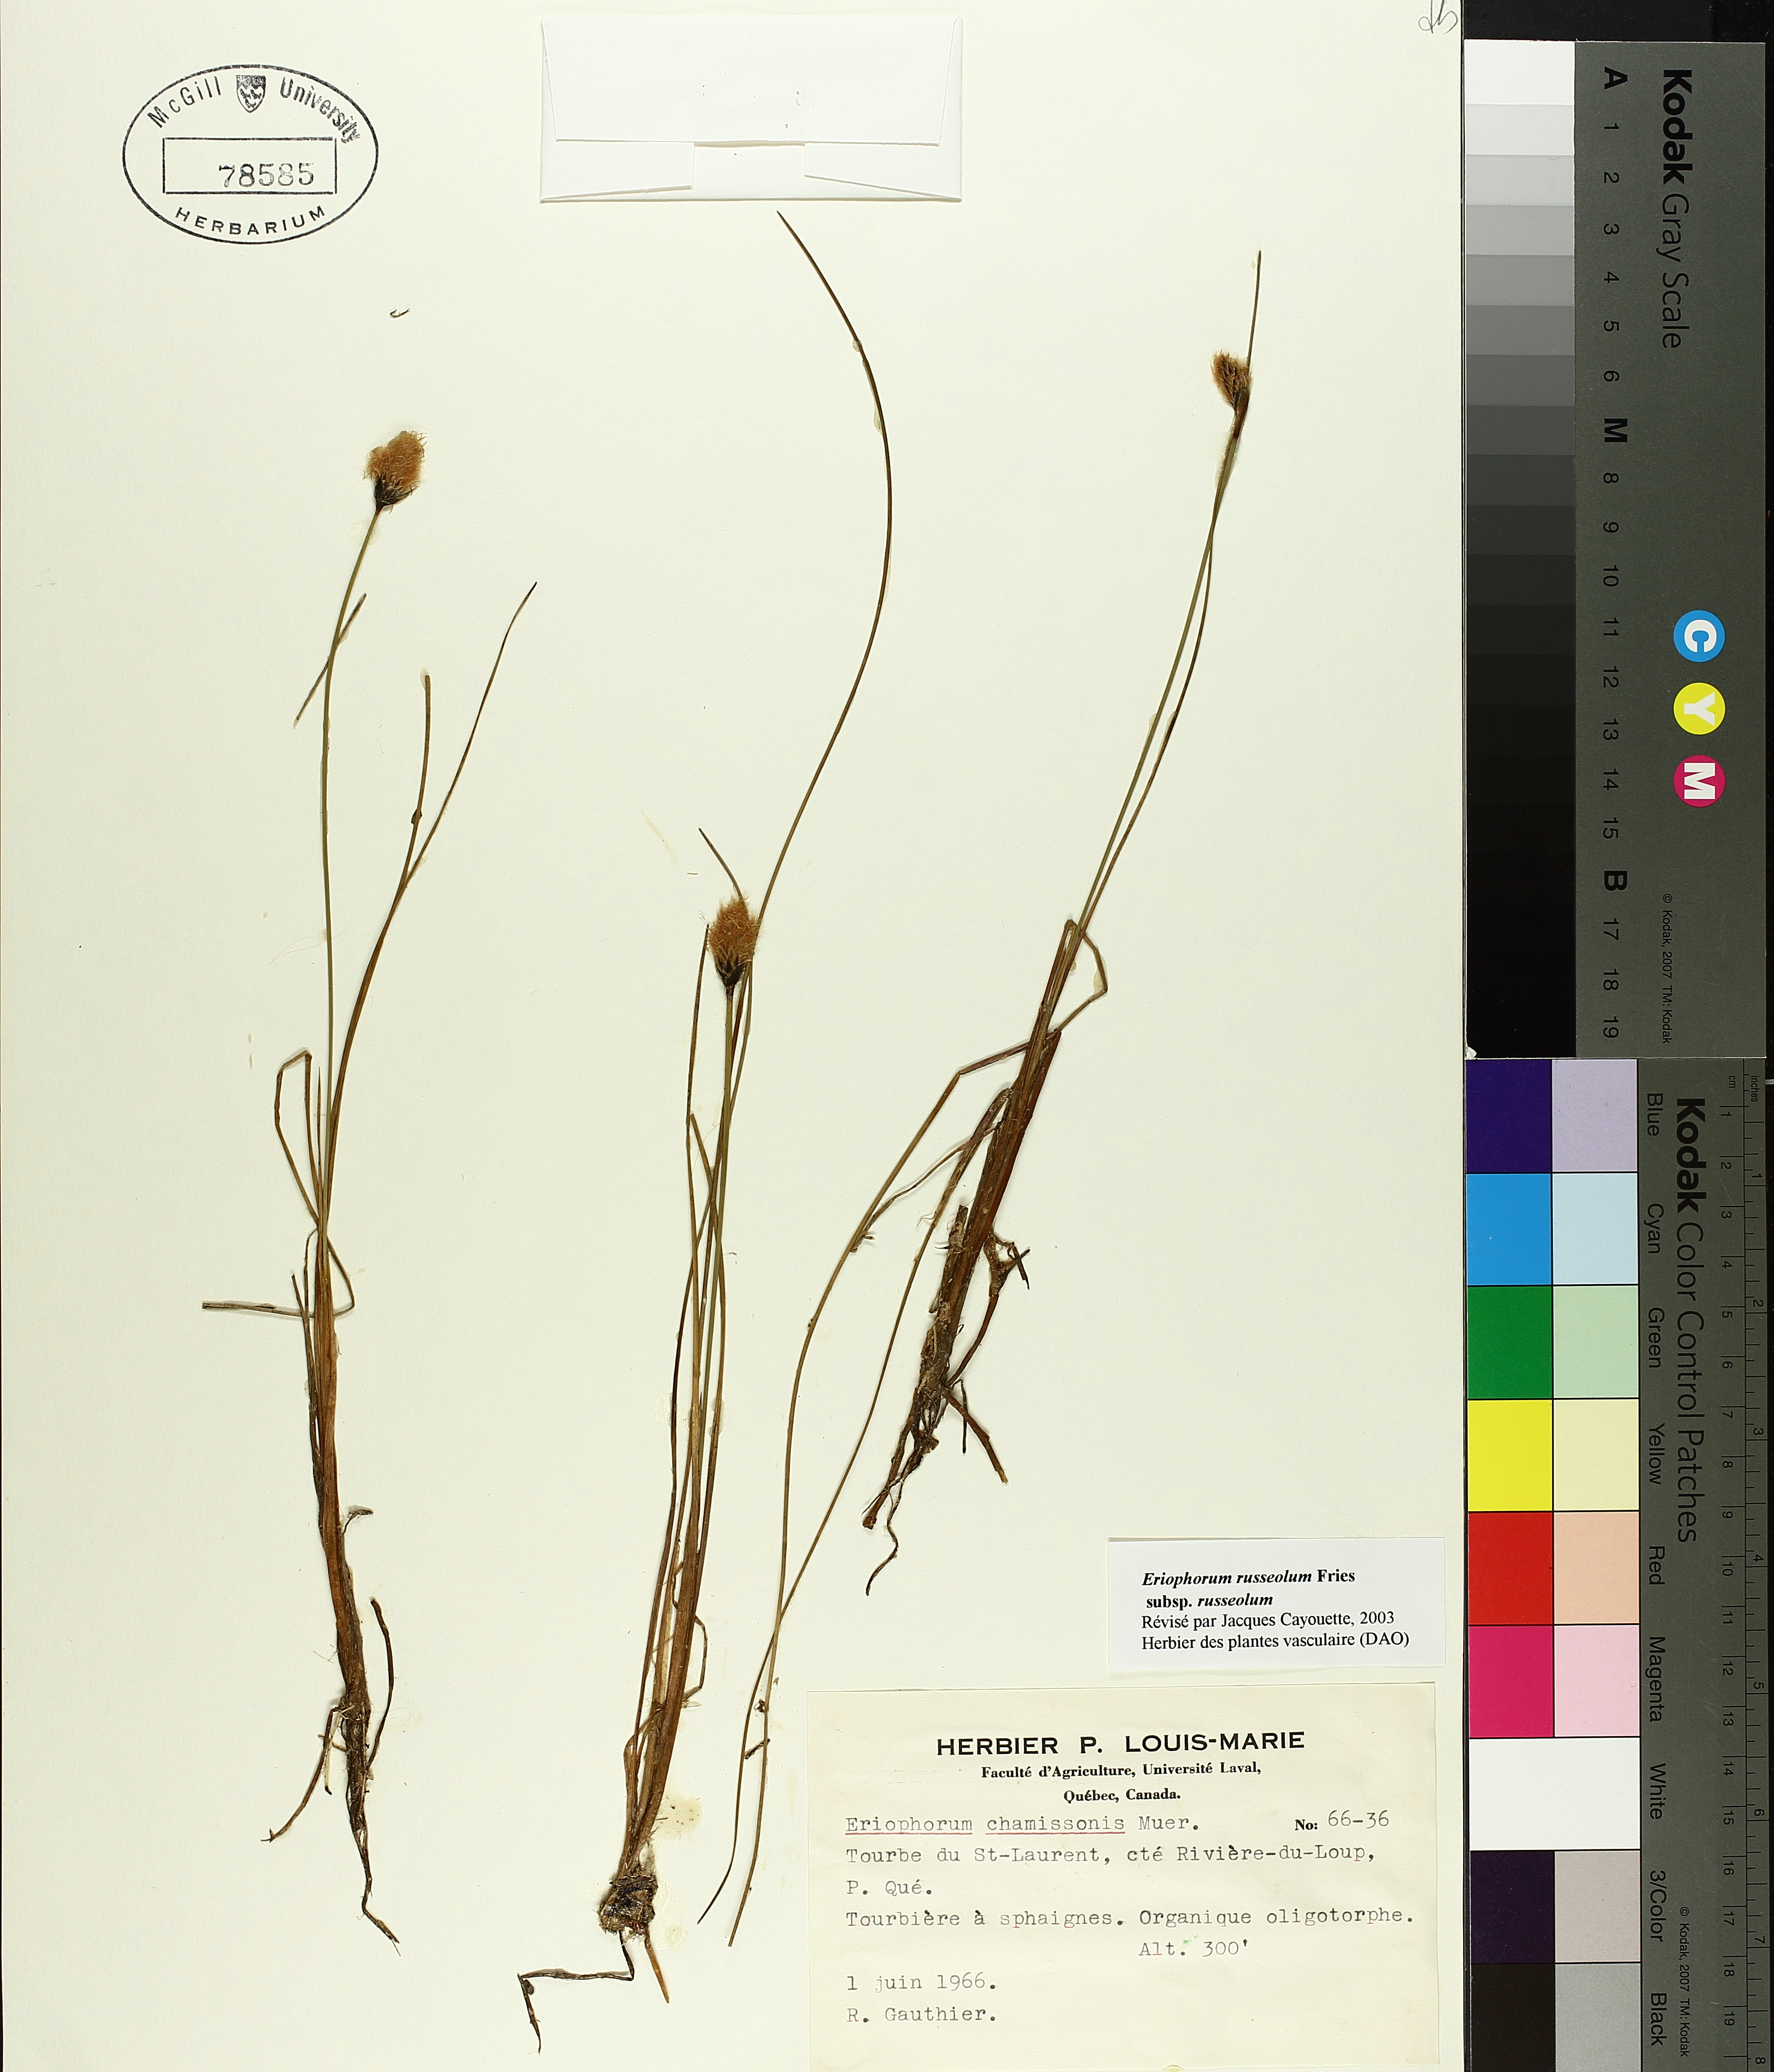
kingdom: Plantae
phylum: Tracheophyta
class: Liliopsida
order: Poales
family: Cyperaceae
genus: Eriophorum
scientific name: Eriophorum chamissonis
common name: Chamisso's cottongrass
